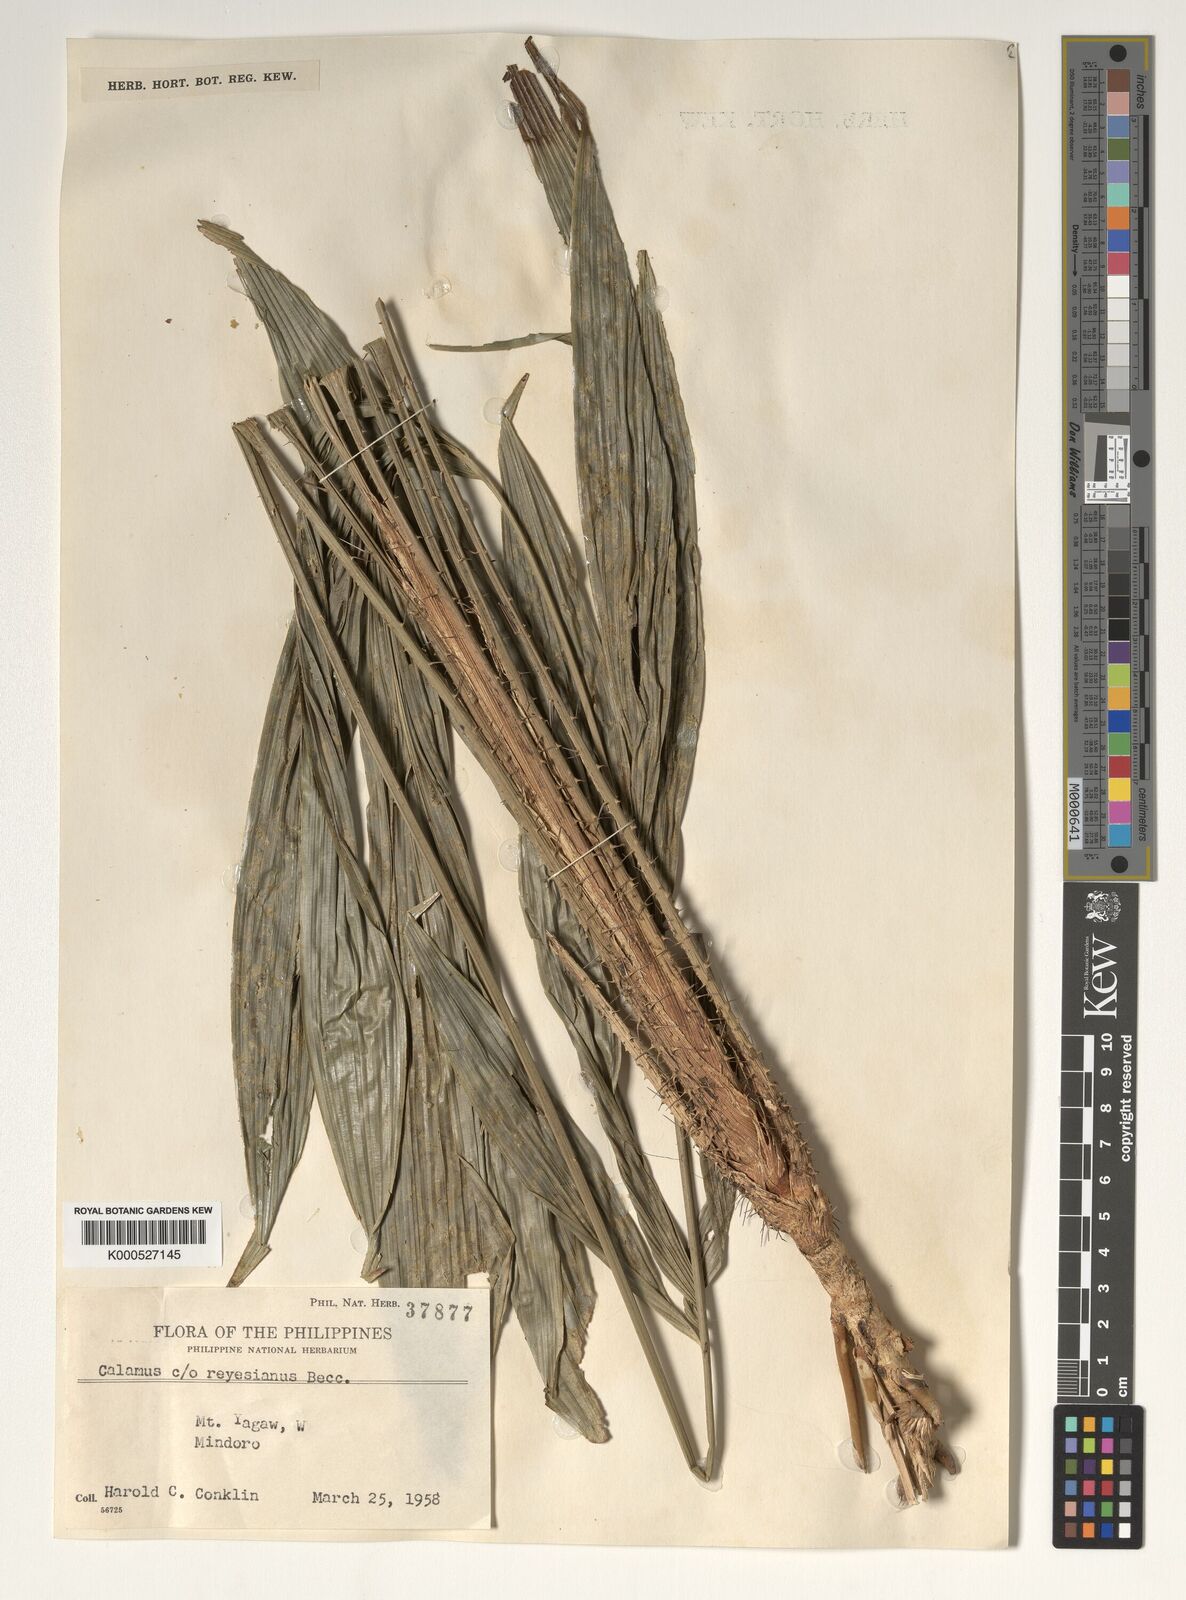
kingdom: Plantae
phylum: Tracheophyta
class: Liliopsida
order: Arecales
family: Arecaceae
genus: Calamus
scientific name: Calamus moseleyanus
